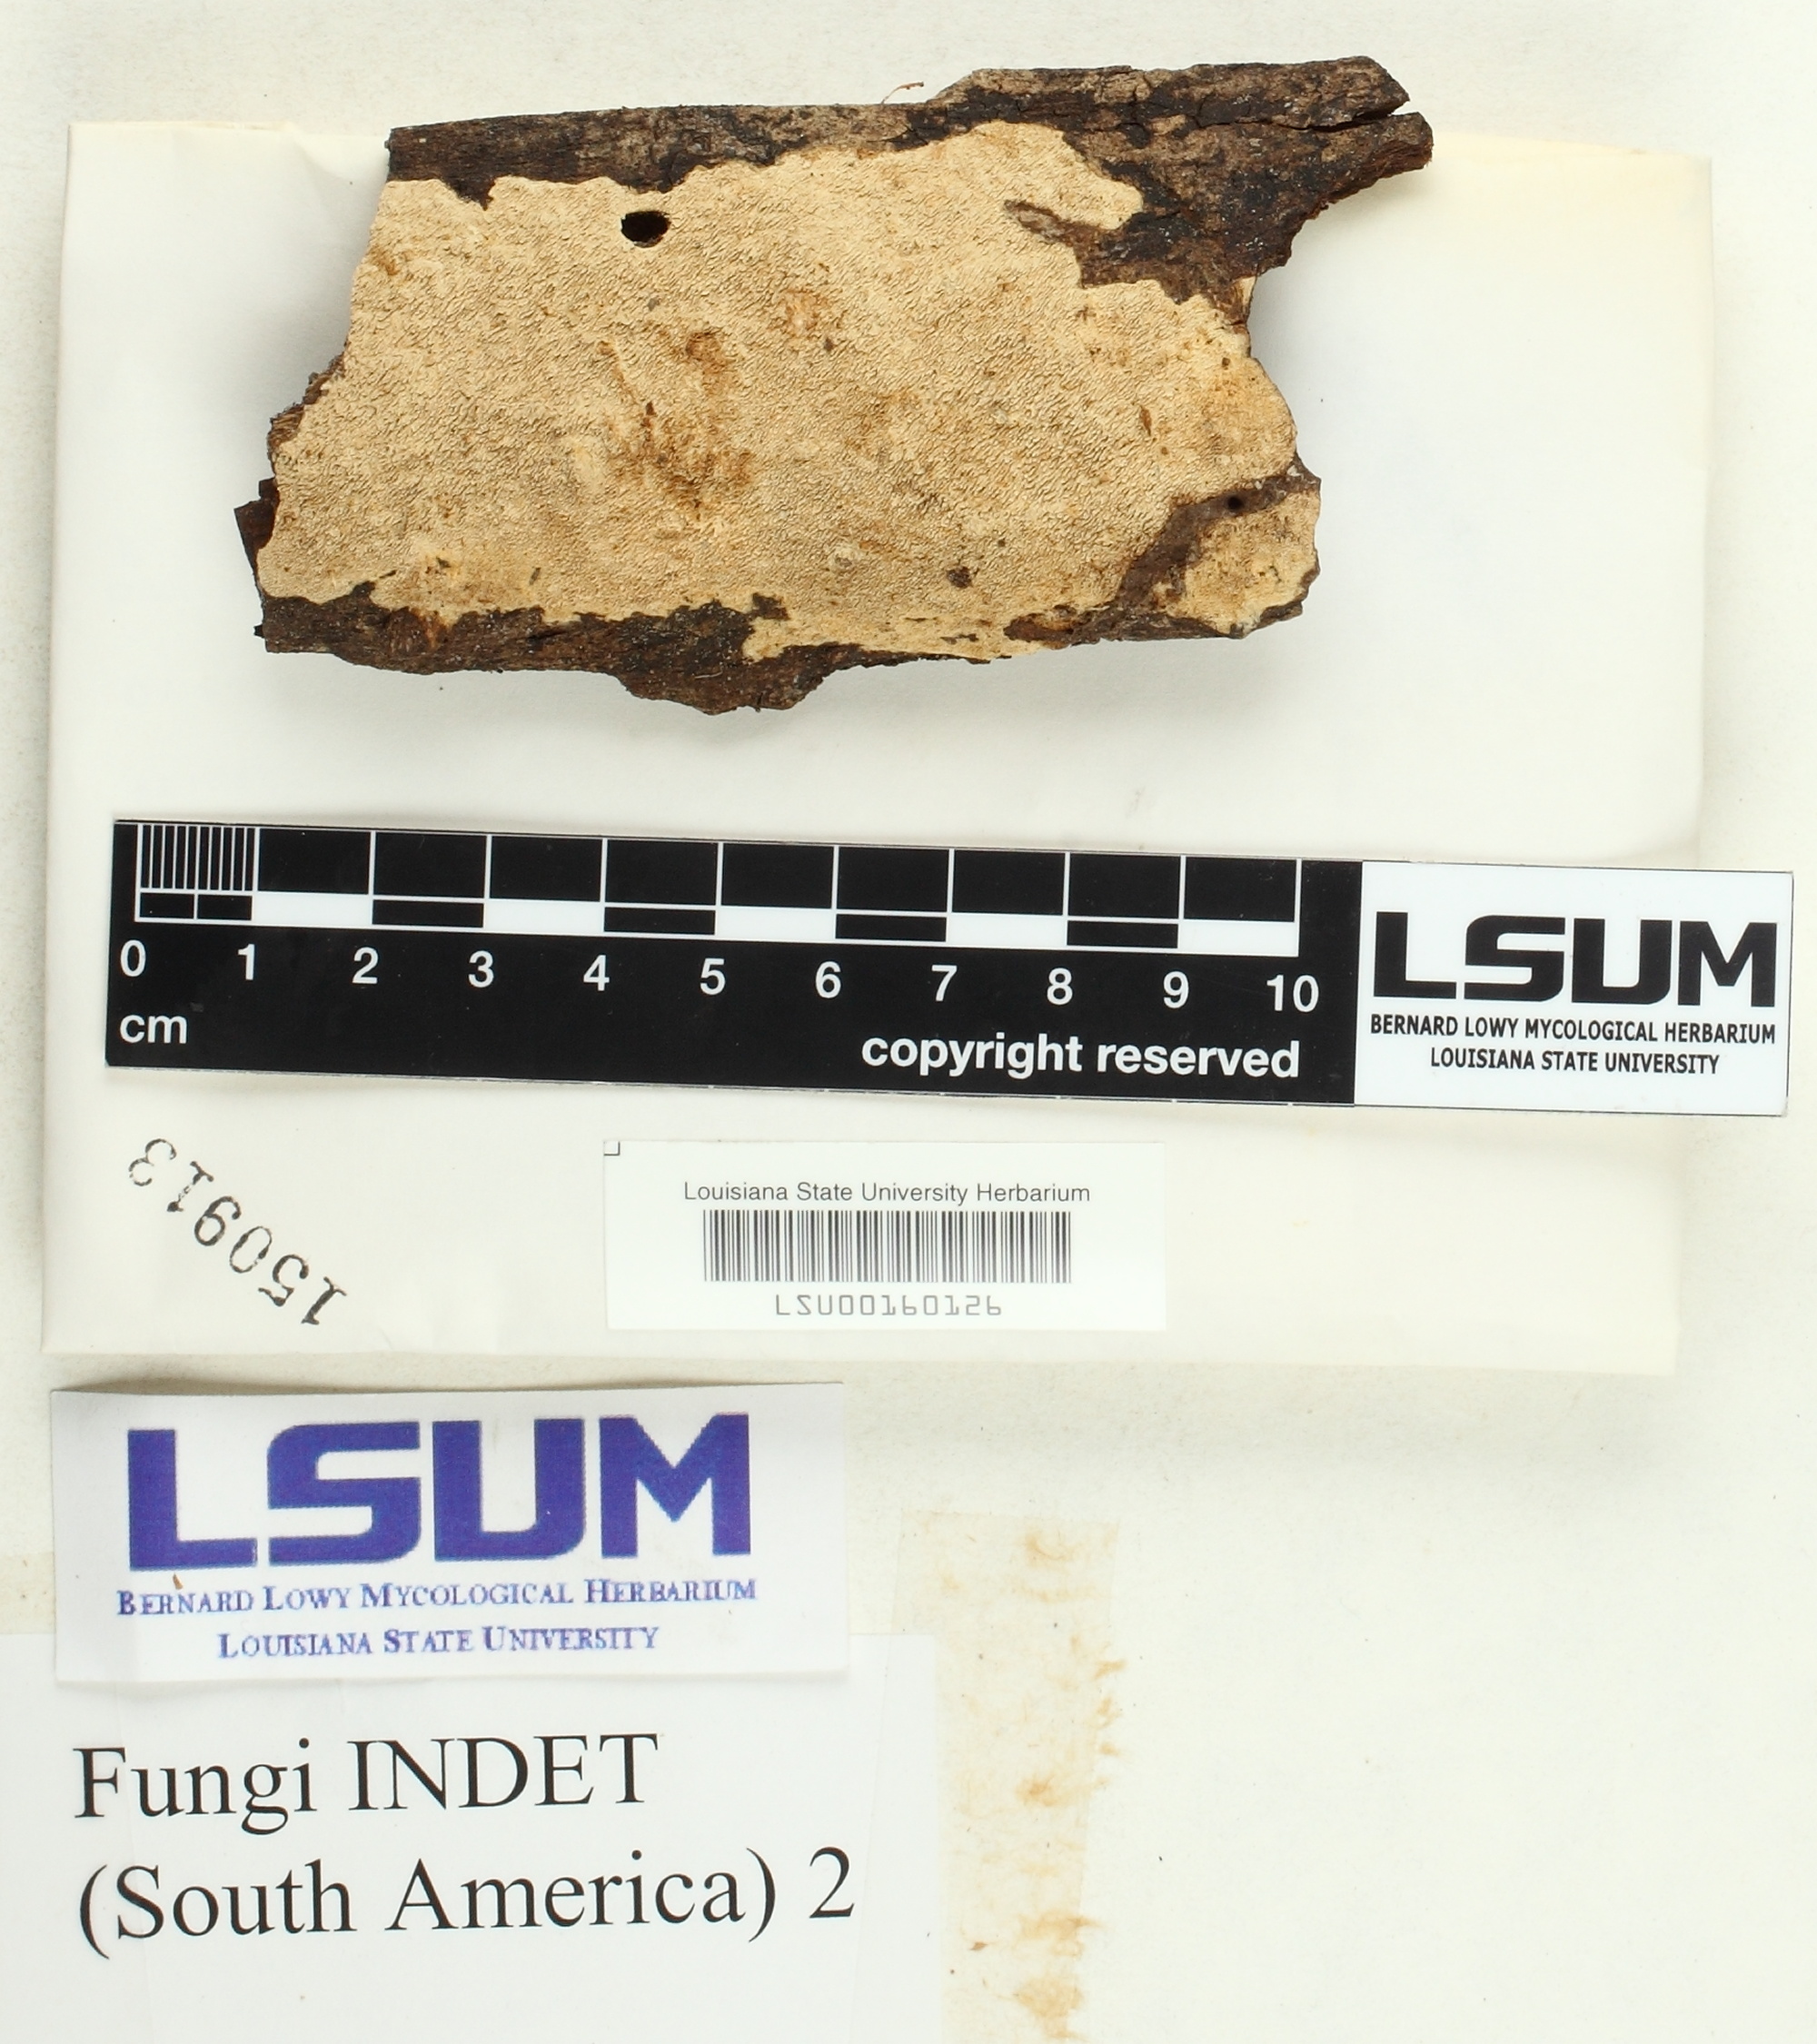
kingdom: Fungi
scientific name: Fungi
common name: Fungi
